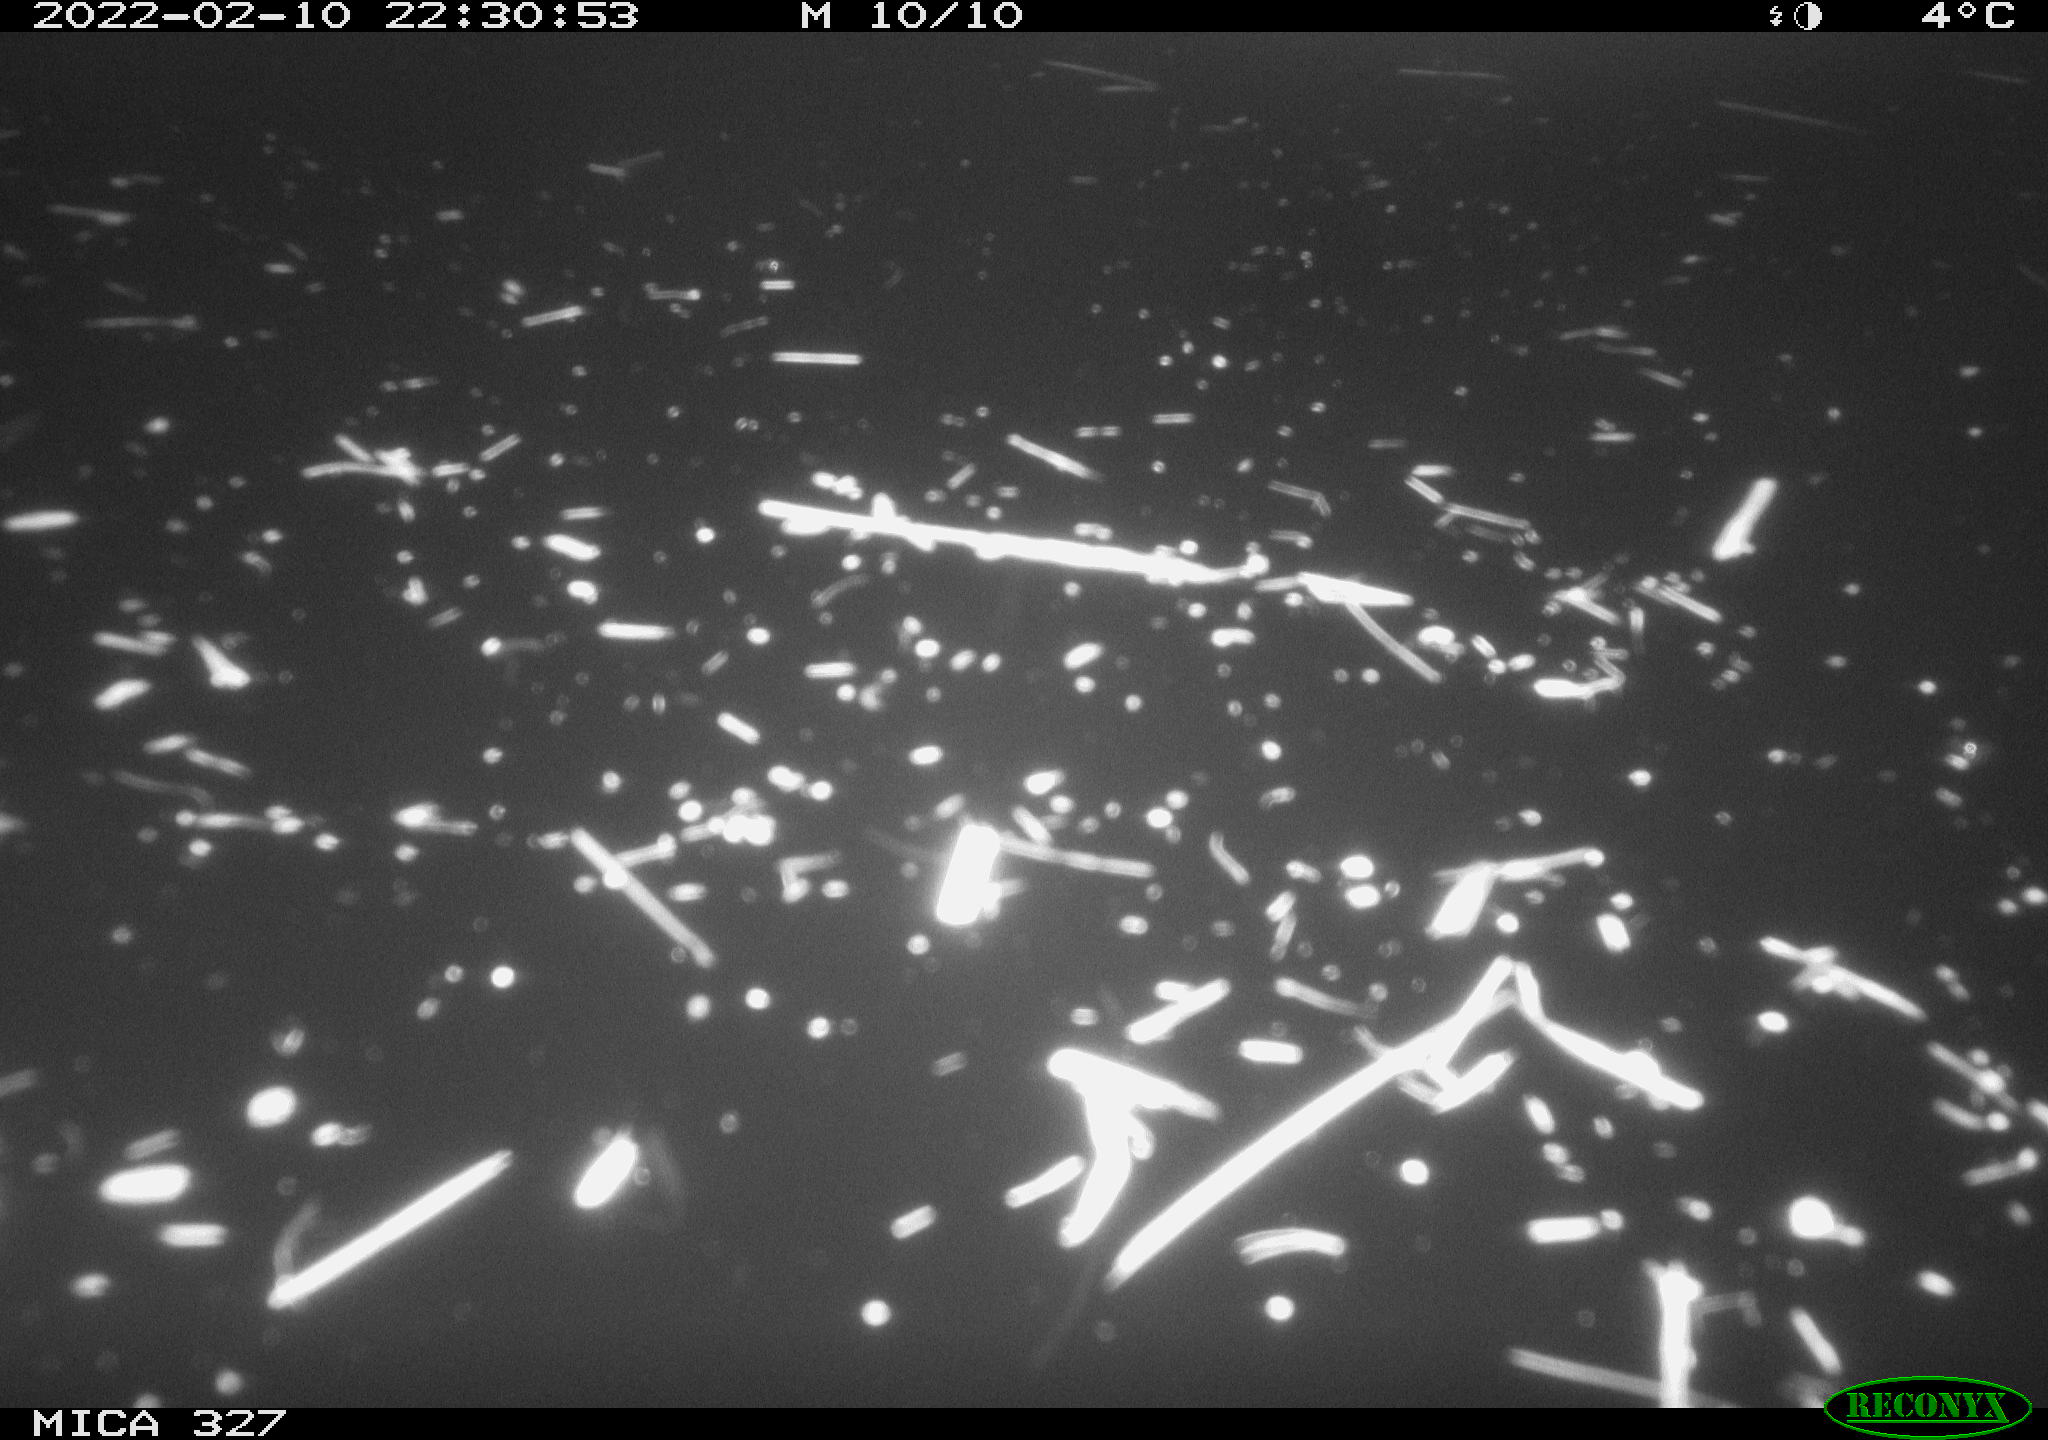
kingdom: Animalia
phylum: Chordata
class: Mammalia
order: Rodentia
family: Cricetidae
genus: Ondatra
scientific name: Ondatra zibethicus
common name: Muskrat
